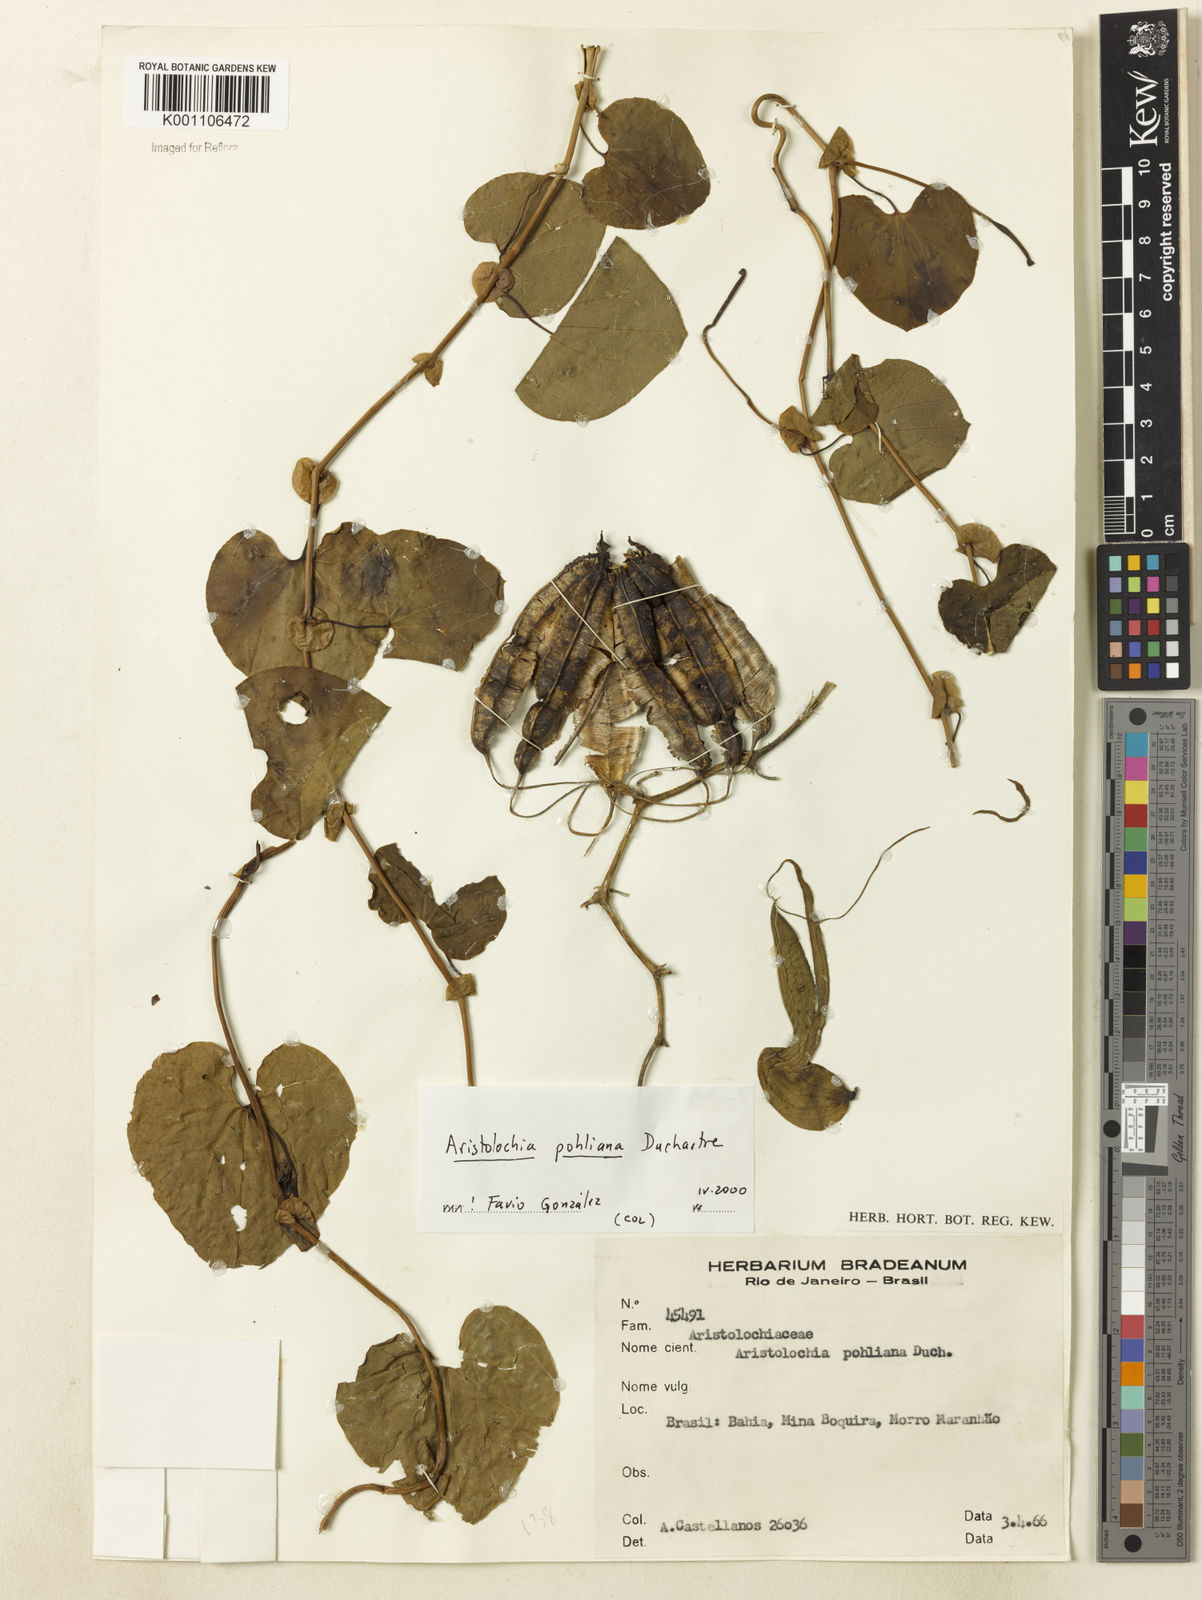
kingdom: Plantae
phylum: Tracheophyta
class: Magnoliopsida
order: Piperales
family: Aristolochiaceae
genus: Aristolochia
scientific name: Aristolochia pohliana
